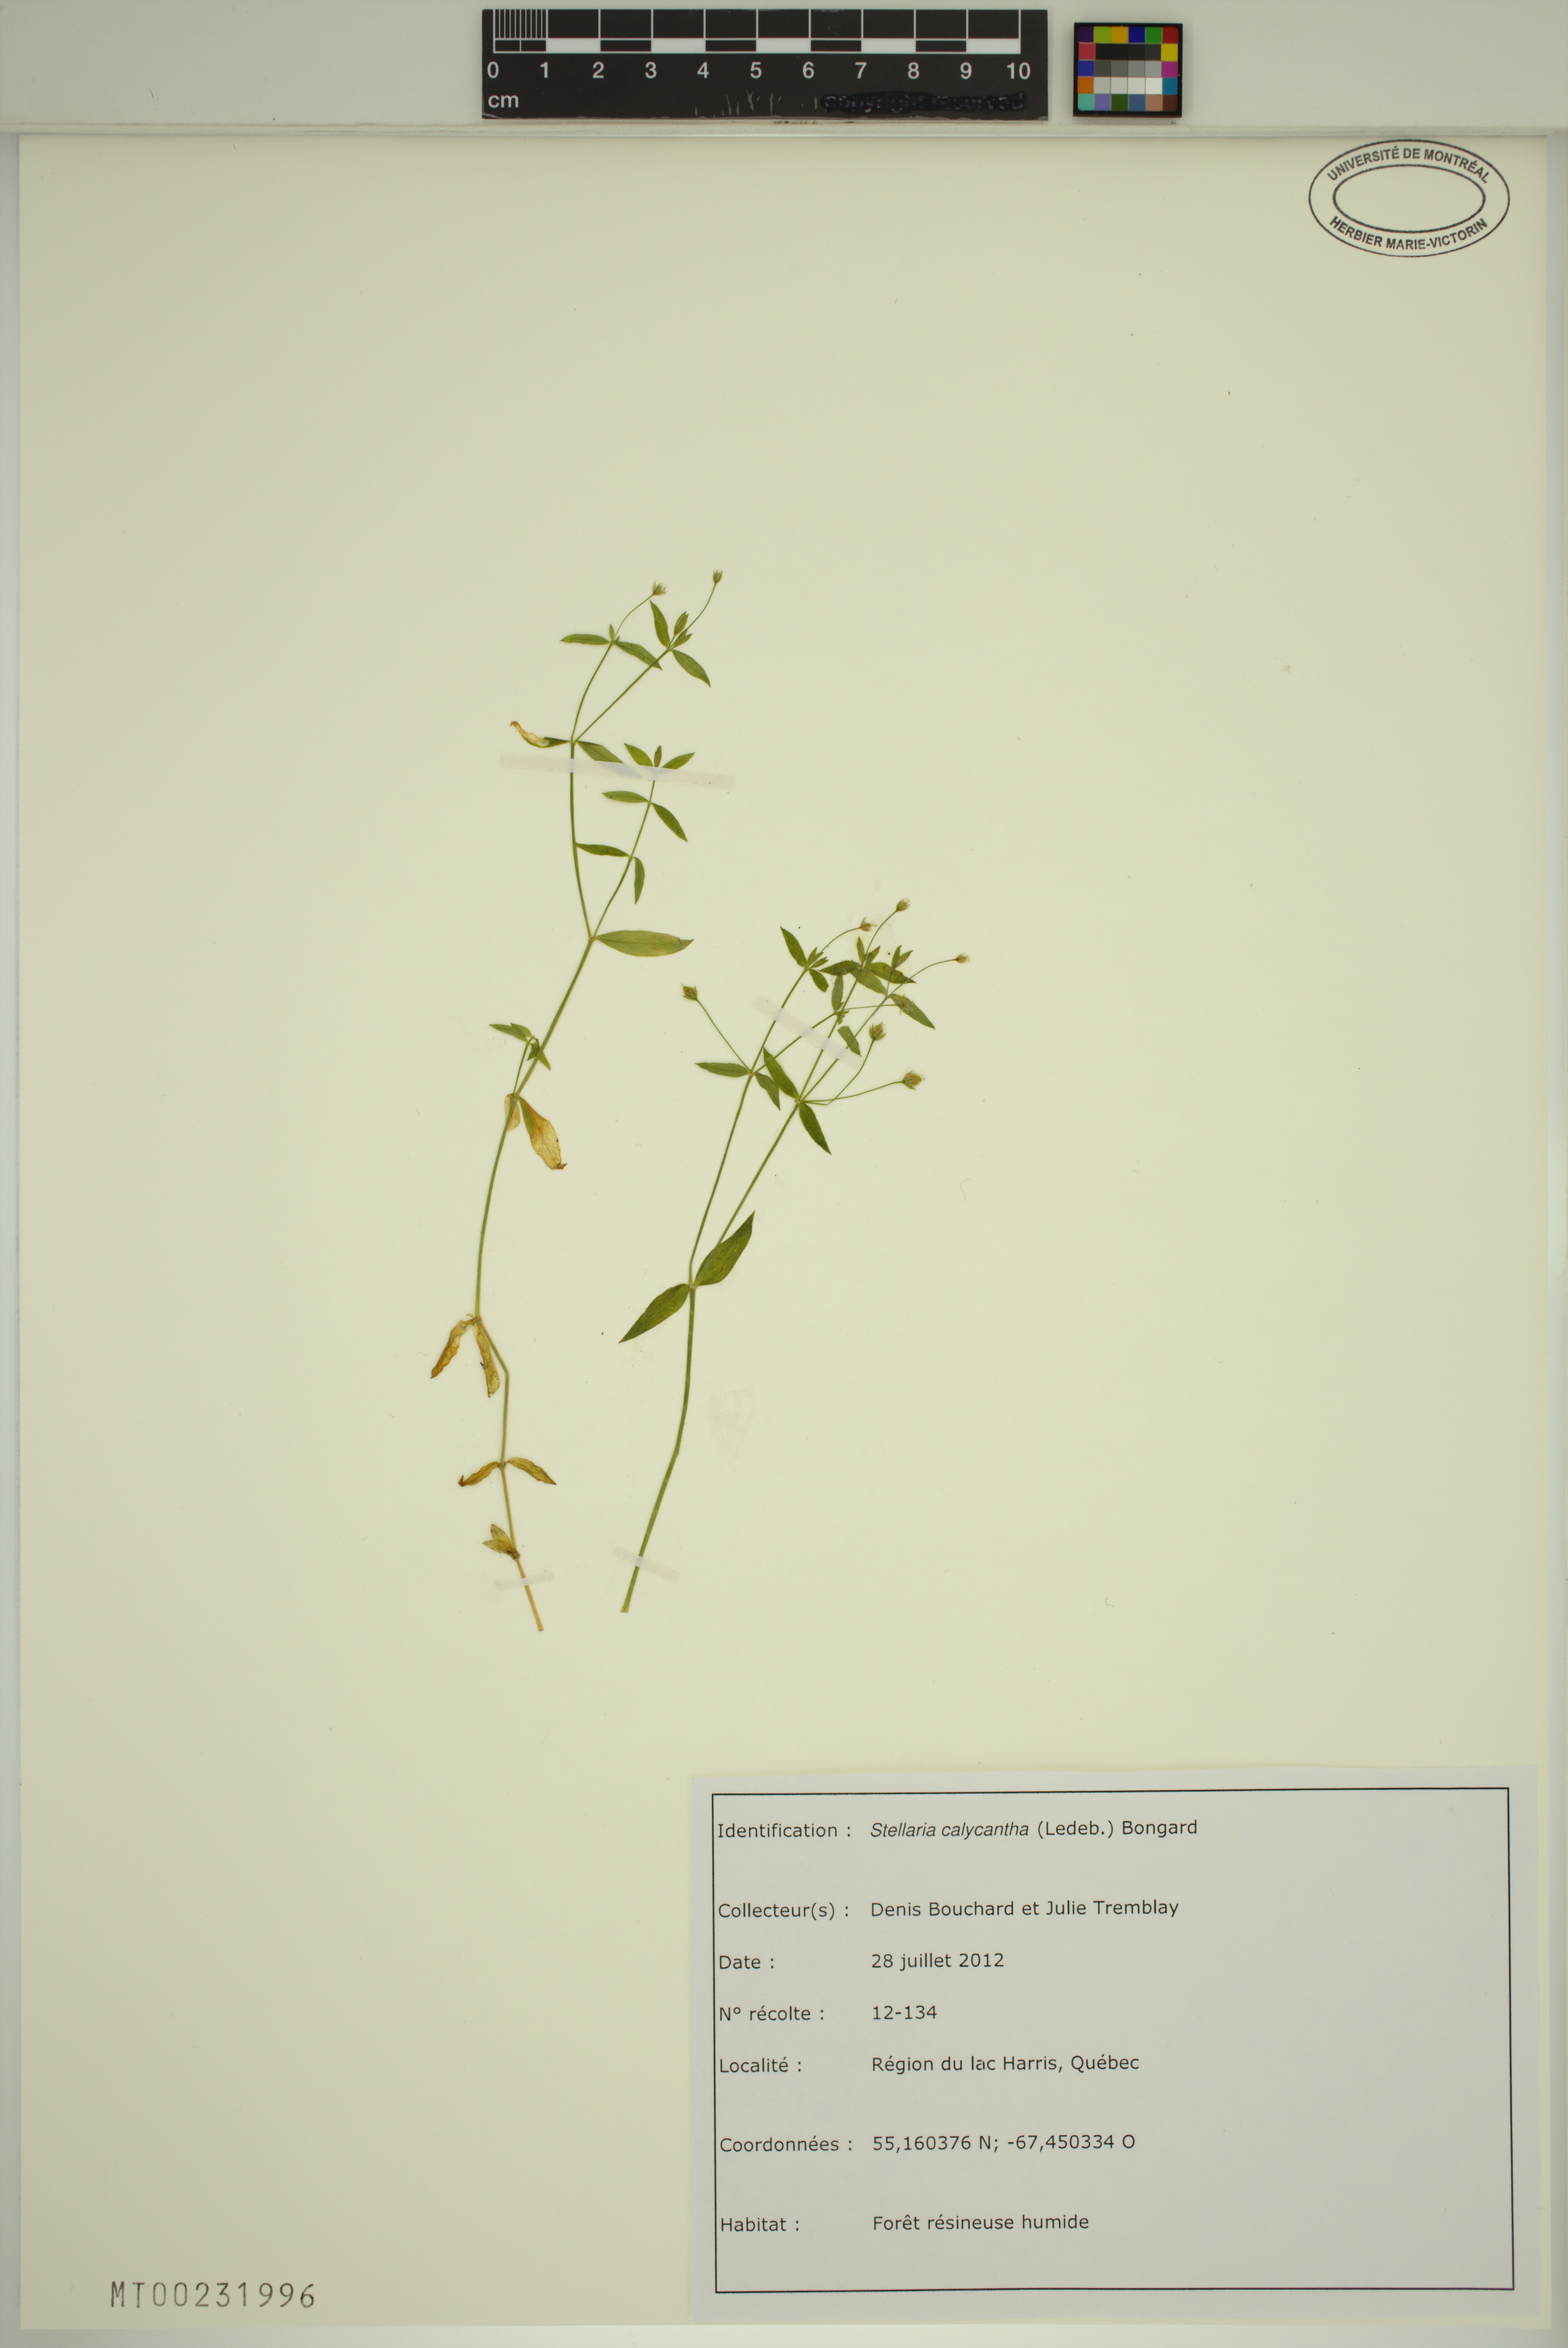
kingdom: Plantae
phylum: Tracheophyta
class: Magnoliopsida
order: Caryophyllales
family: Caryophyllaceae
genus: Stellaria
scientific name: Stellaria calycantha
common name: Northern starwort
